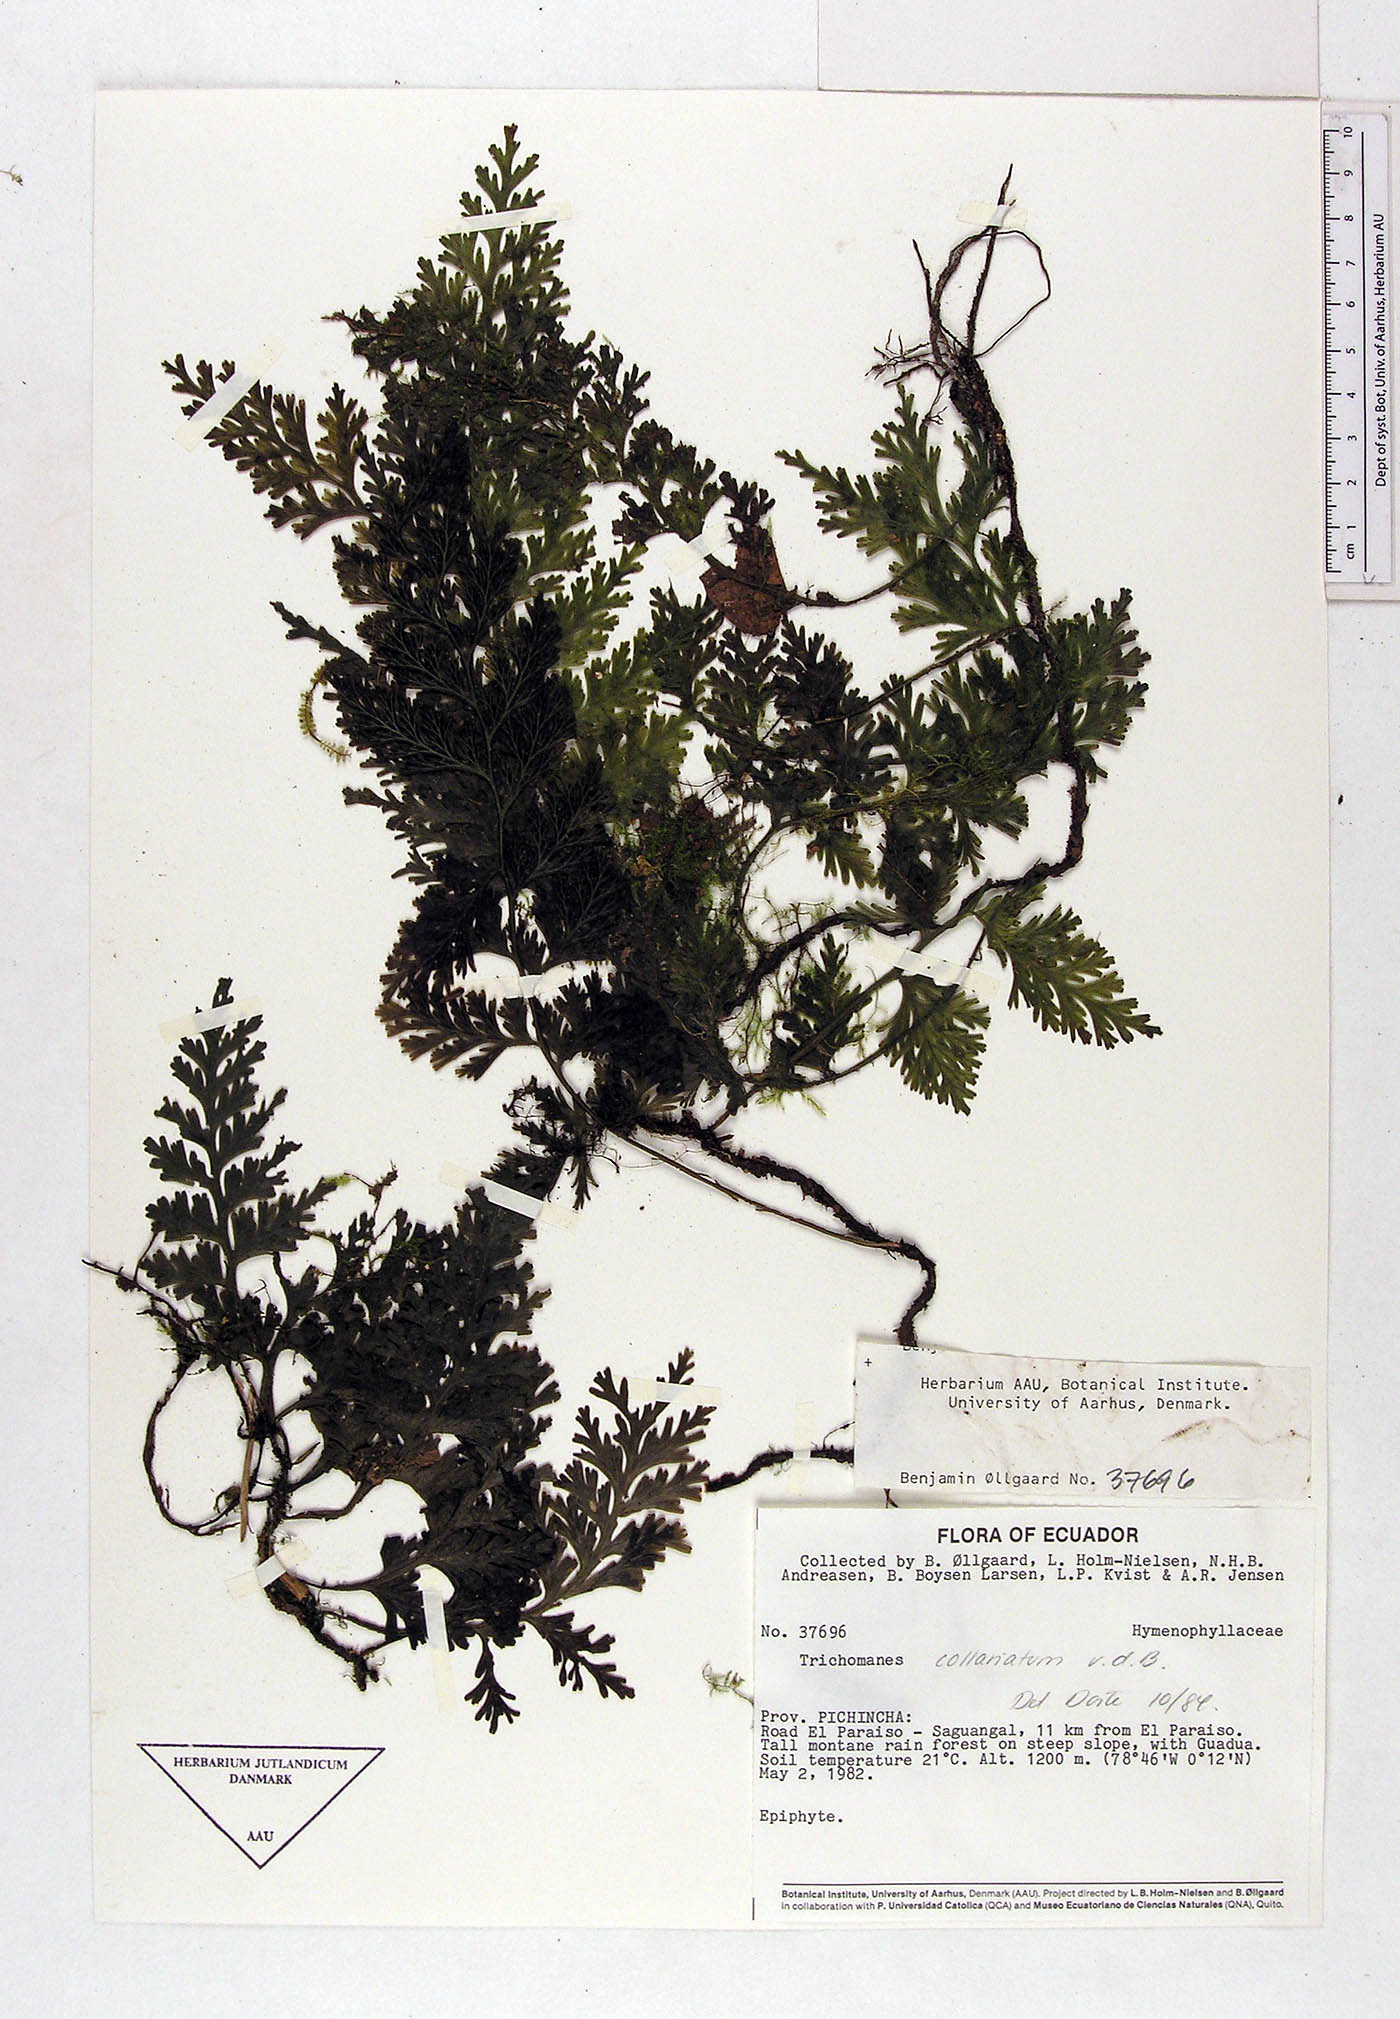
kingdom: Plantae
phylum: Tracheophyta
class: Polypodiopsida
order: Hymenophyllales
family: Hymenophyllaceae
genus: Vandenboschia
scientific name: Vandenboschia collariata
